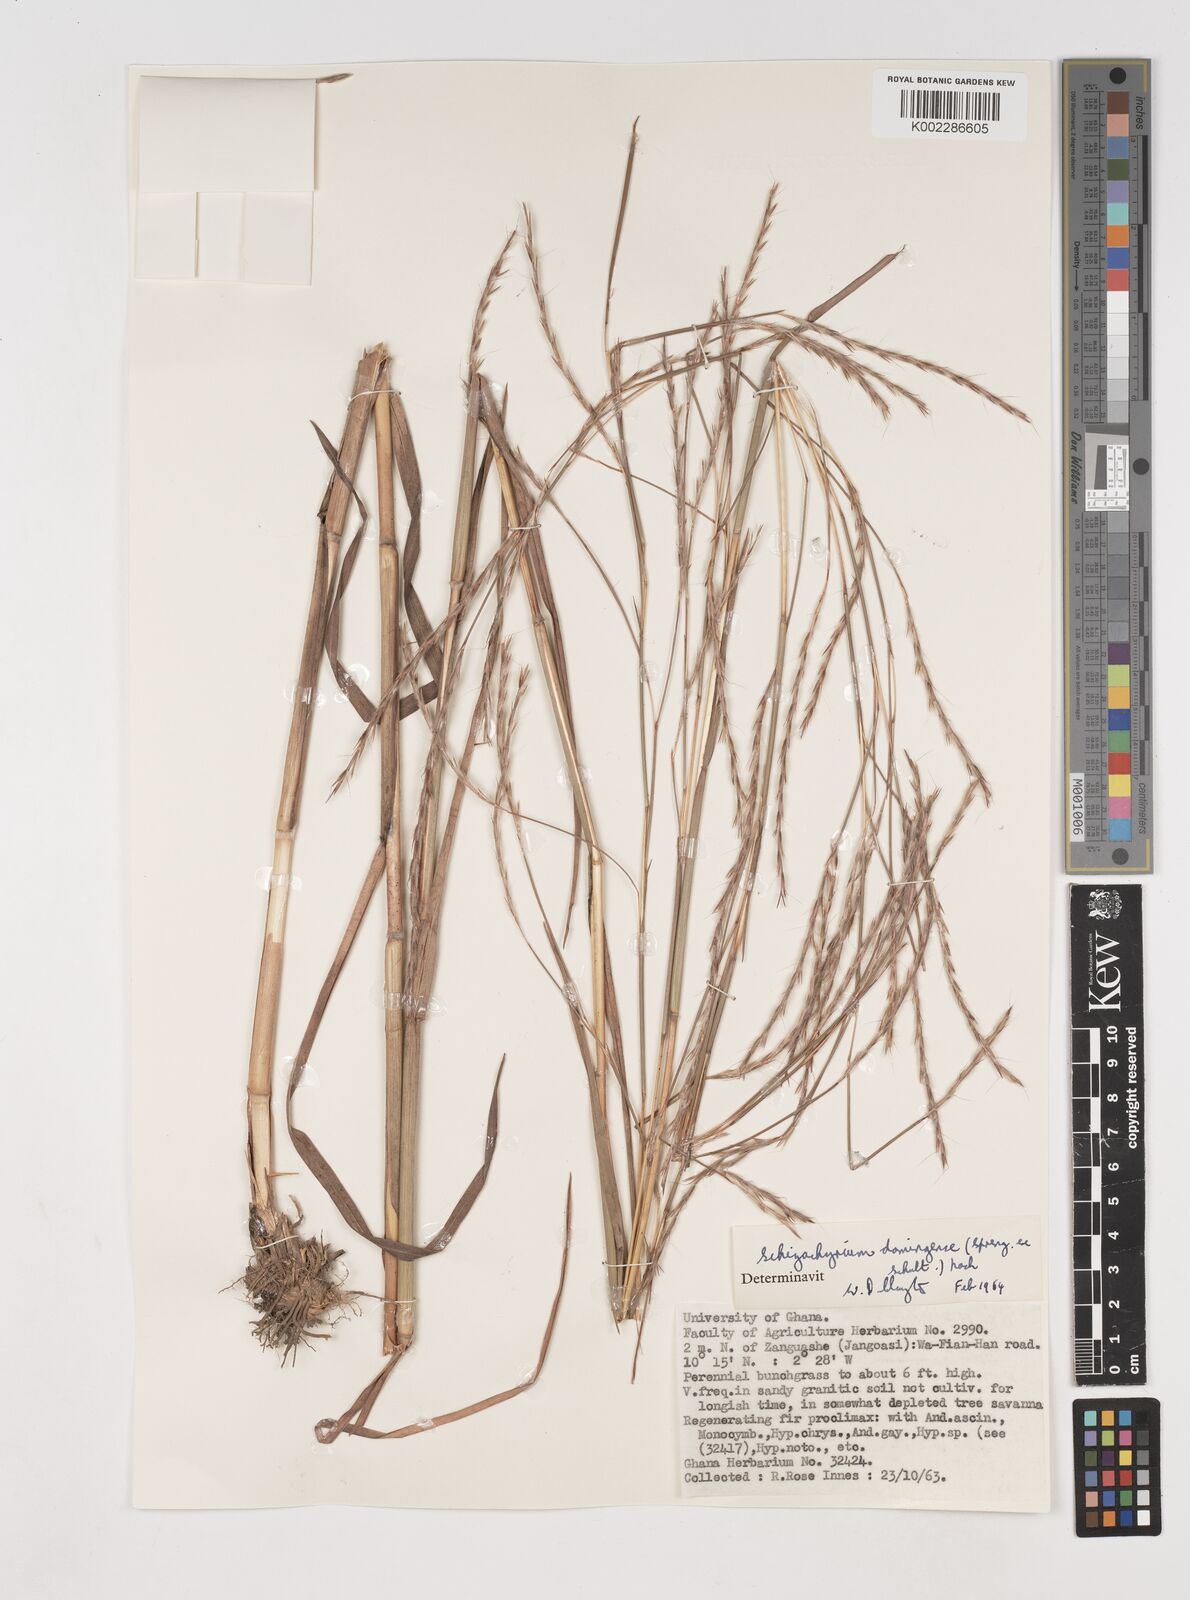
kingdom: Plantae
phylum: Tracheophyta
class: Liliopsida
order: Poales
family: Poaceae
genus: Schizachyrium
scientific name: Schizachyrium sanguineum
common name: Crimson bluestem
